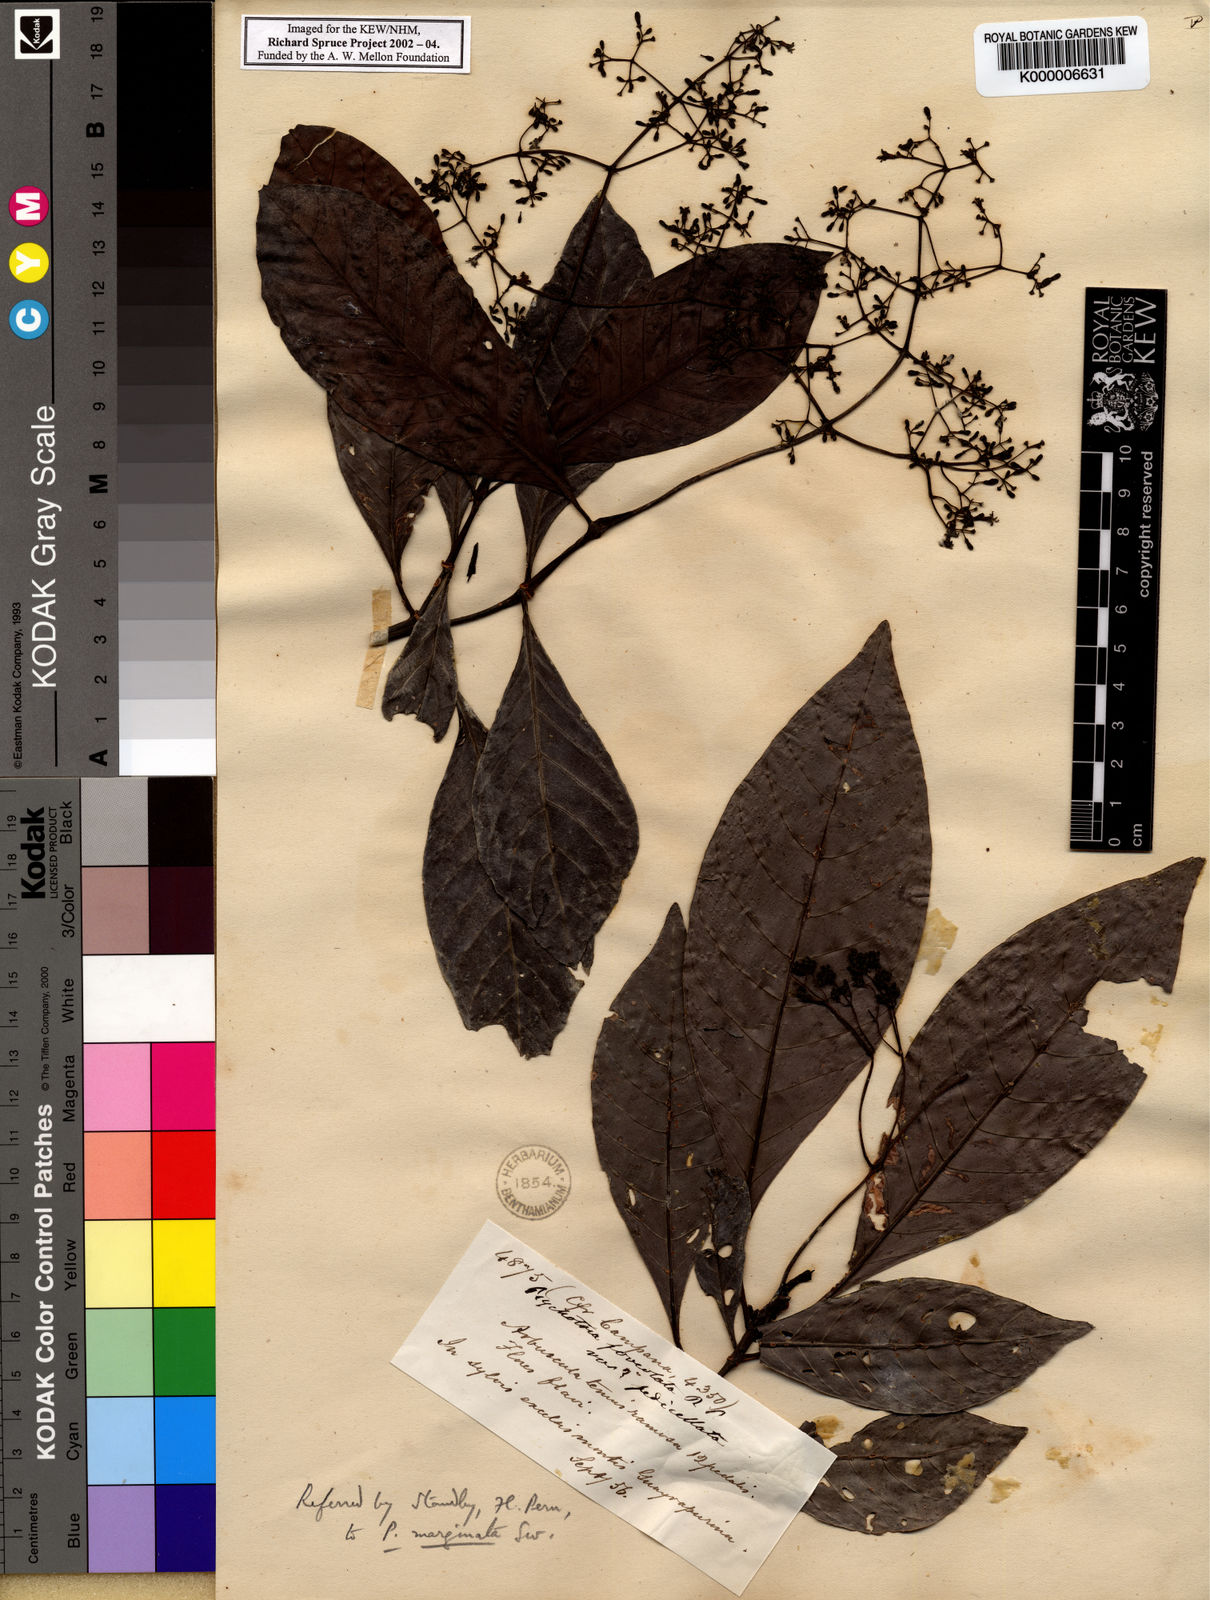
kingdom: Plantae
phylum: Tracheophyta
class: Magnoliopsida
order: Gentianales
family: Rubiaceae
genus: Psychotria
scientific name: Psychotria marginata
